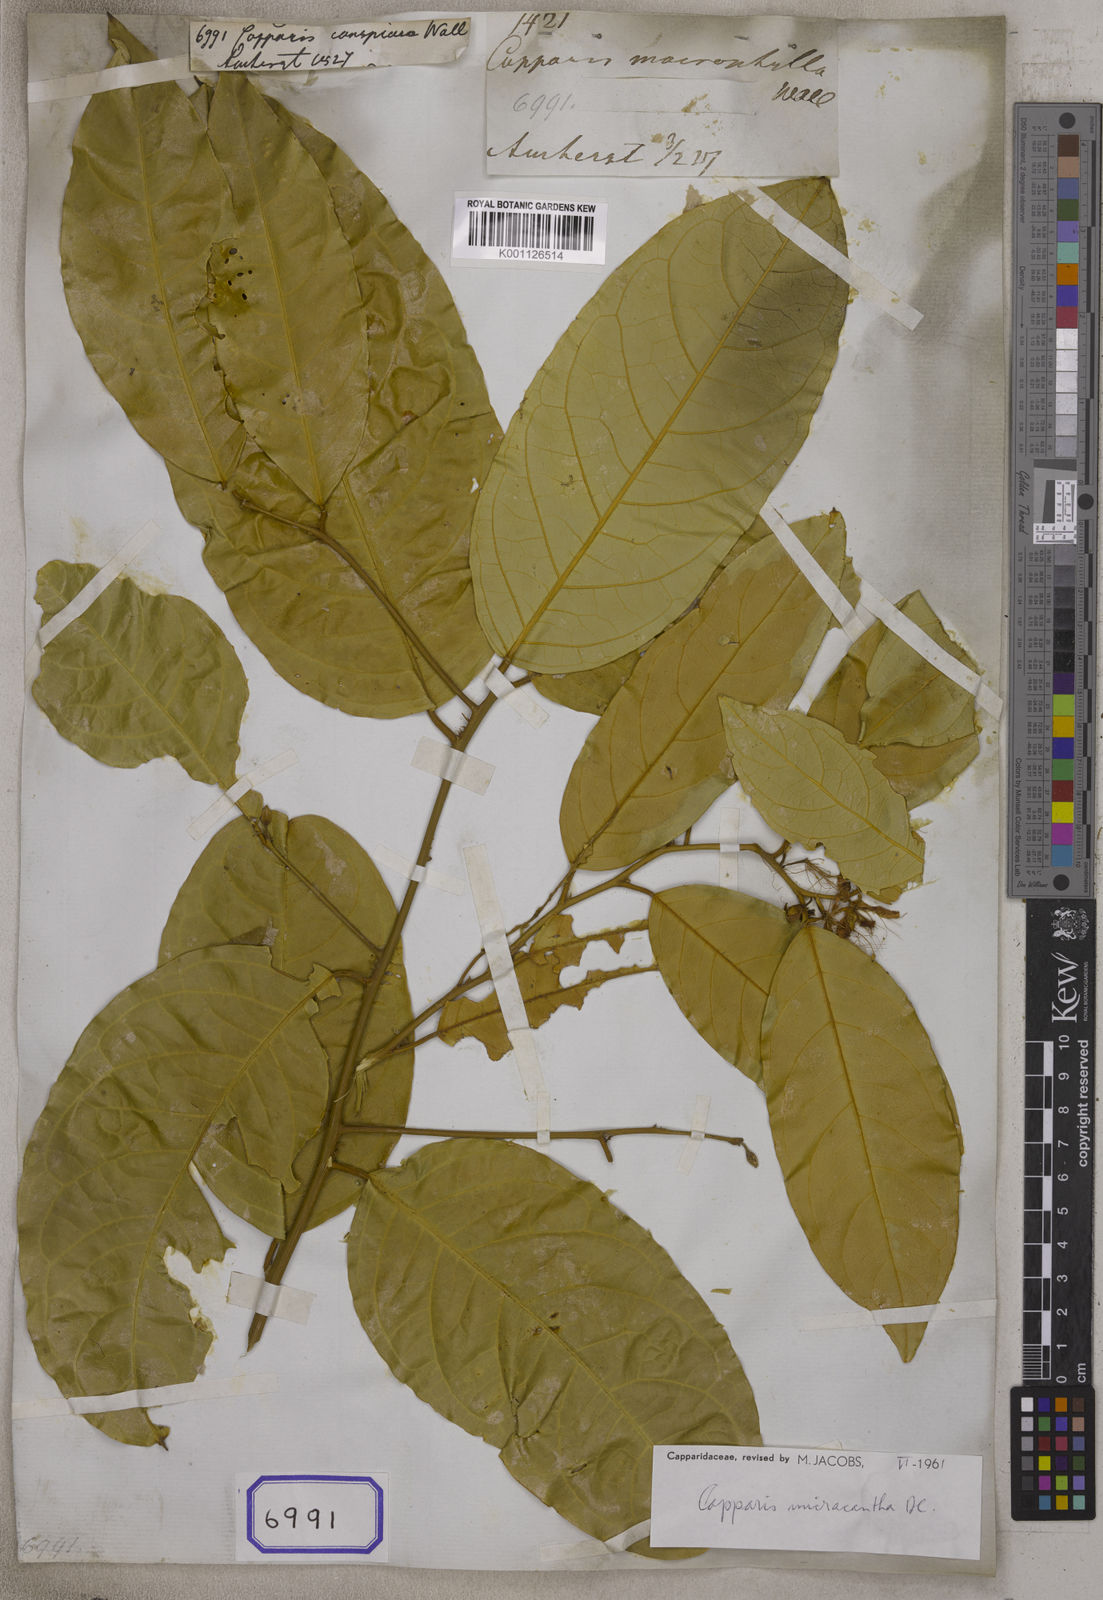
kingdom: Plantae
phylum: Tracheophyta
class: Magnoliopsida
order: Brassicales
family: Capparaceae
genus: Capparis
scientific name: Capparis micracantha
